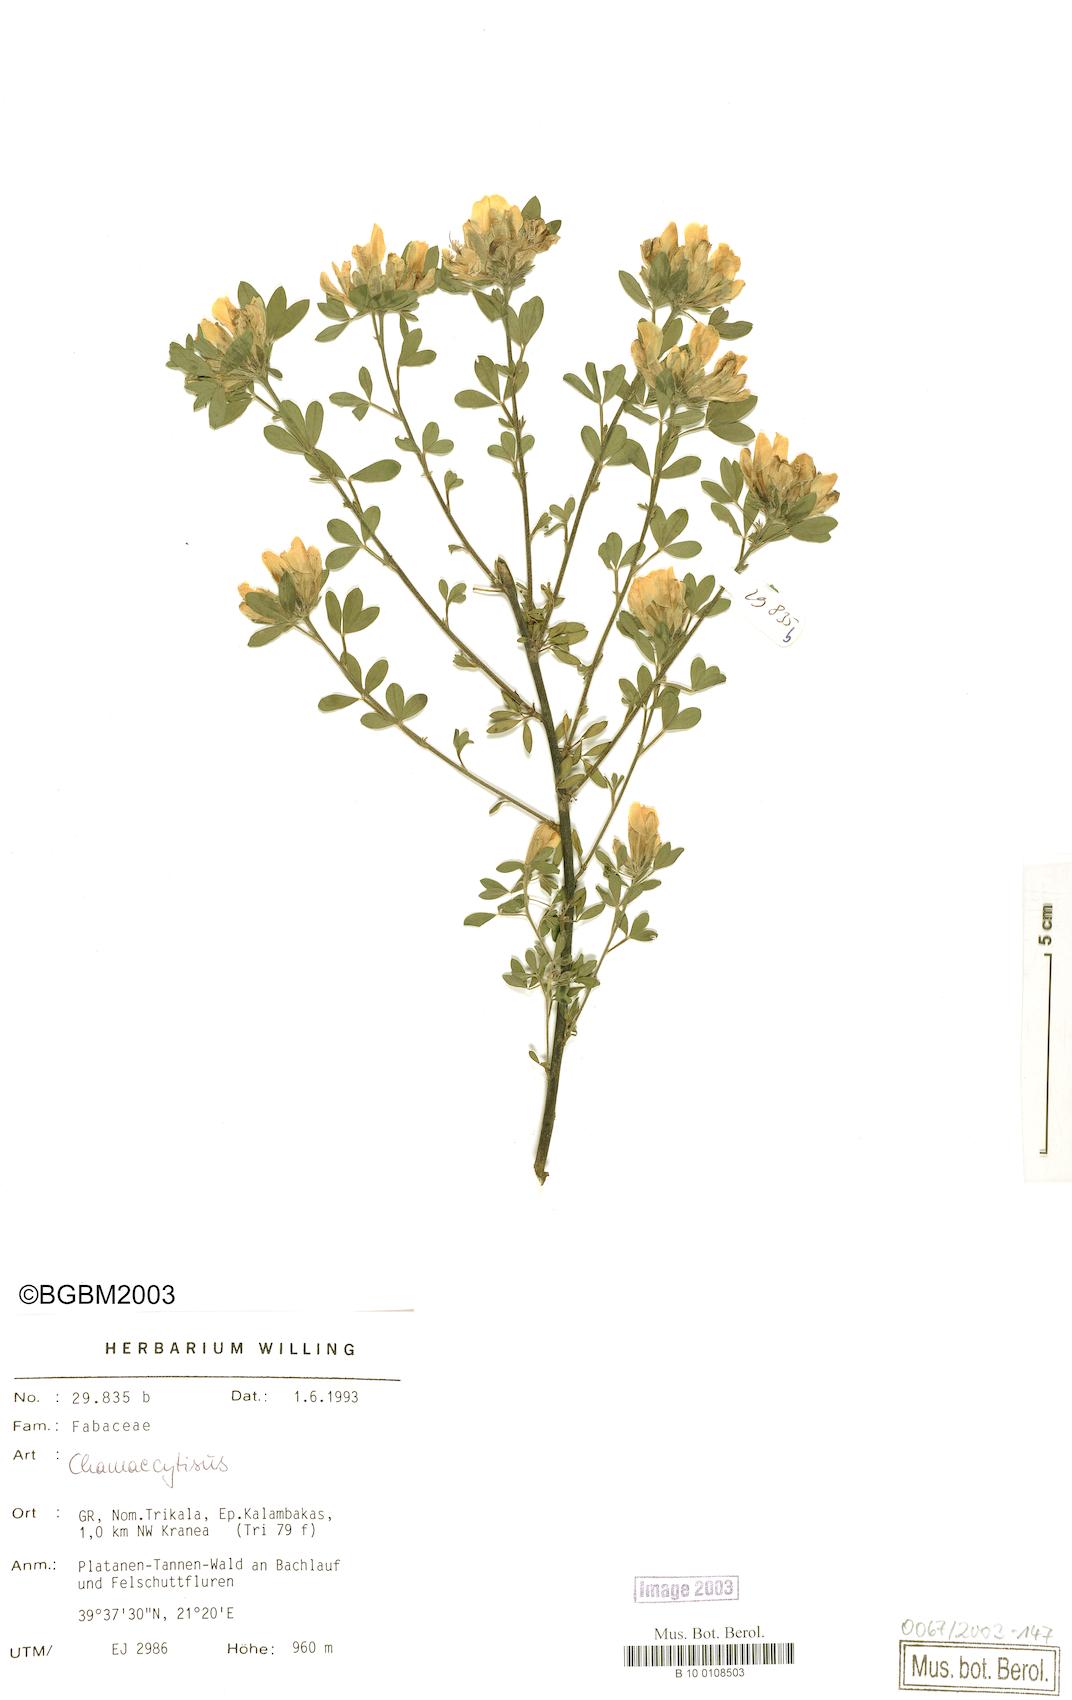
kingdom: Plantae
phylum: Tracheophyta
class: Magnoliopsida
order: Fabales
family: Fabaceae
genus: Chamaecytisus
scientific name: Chamaecytisus
